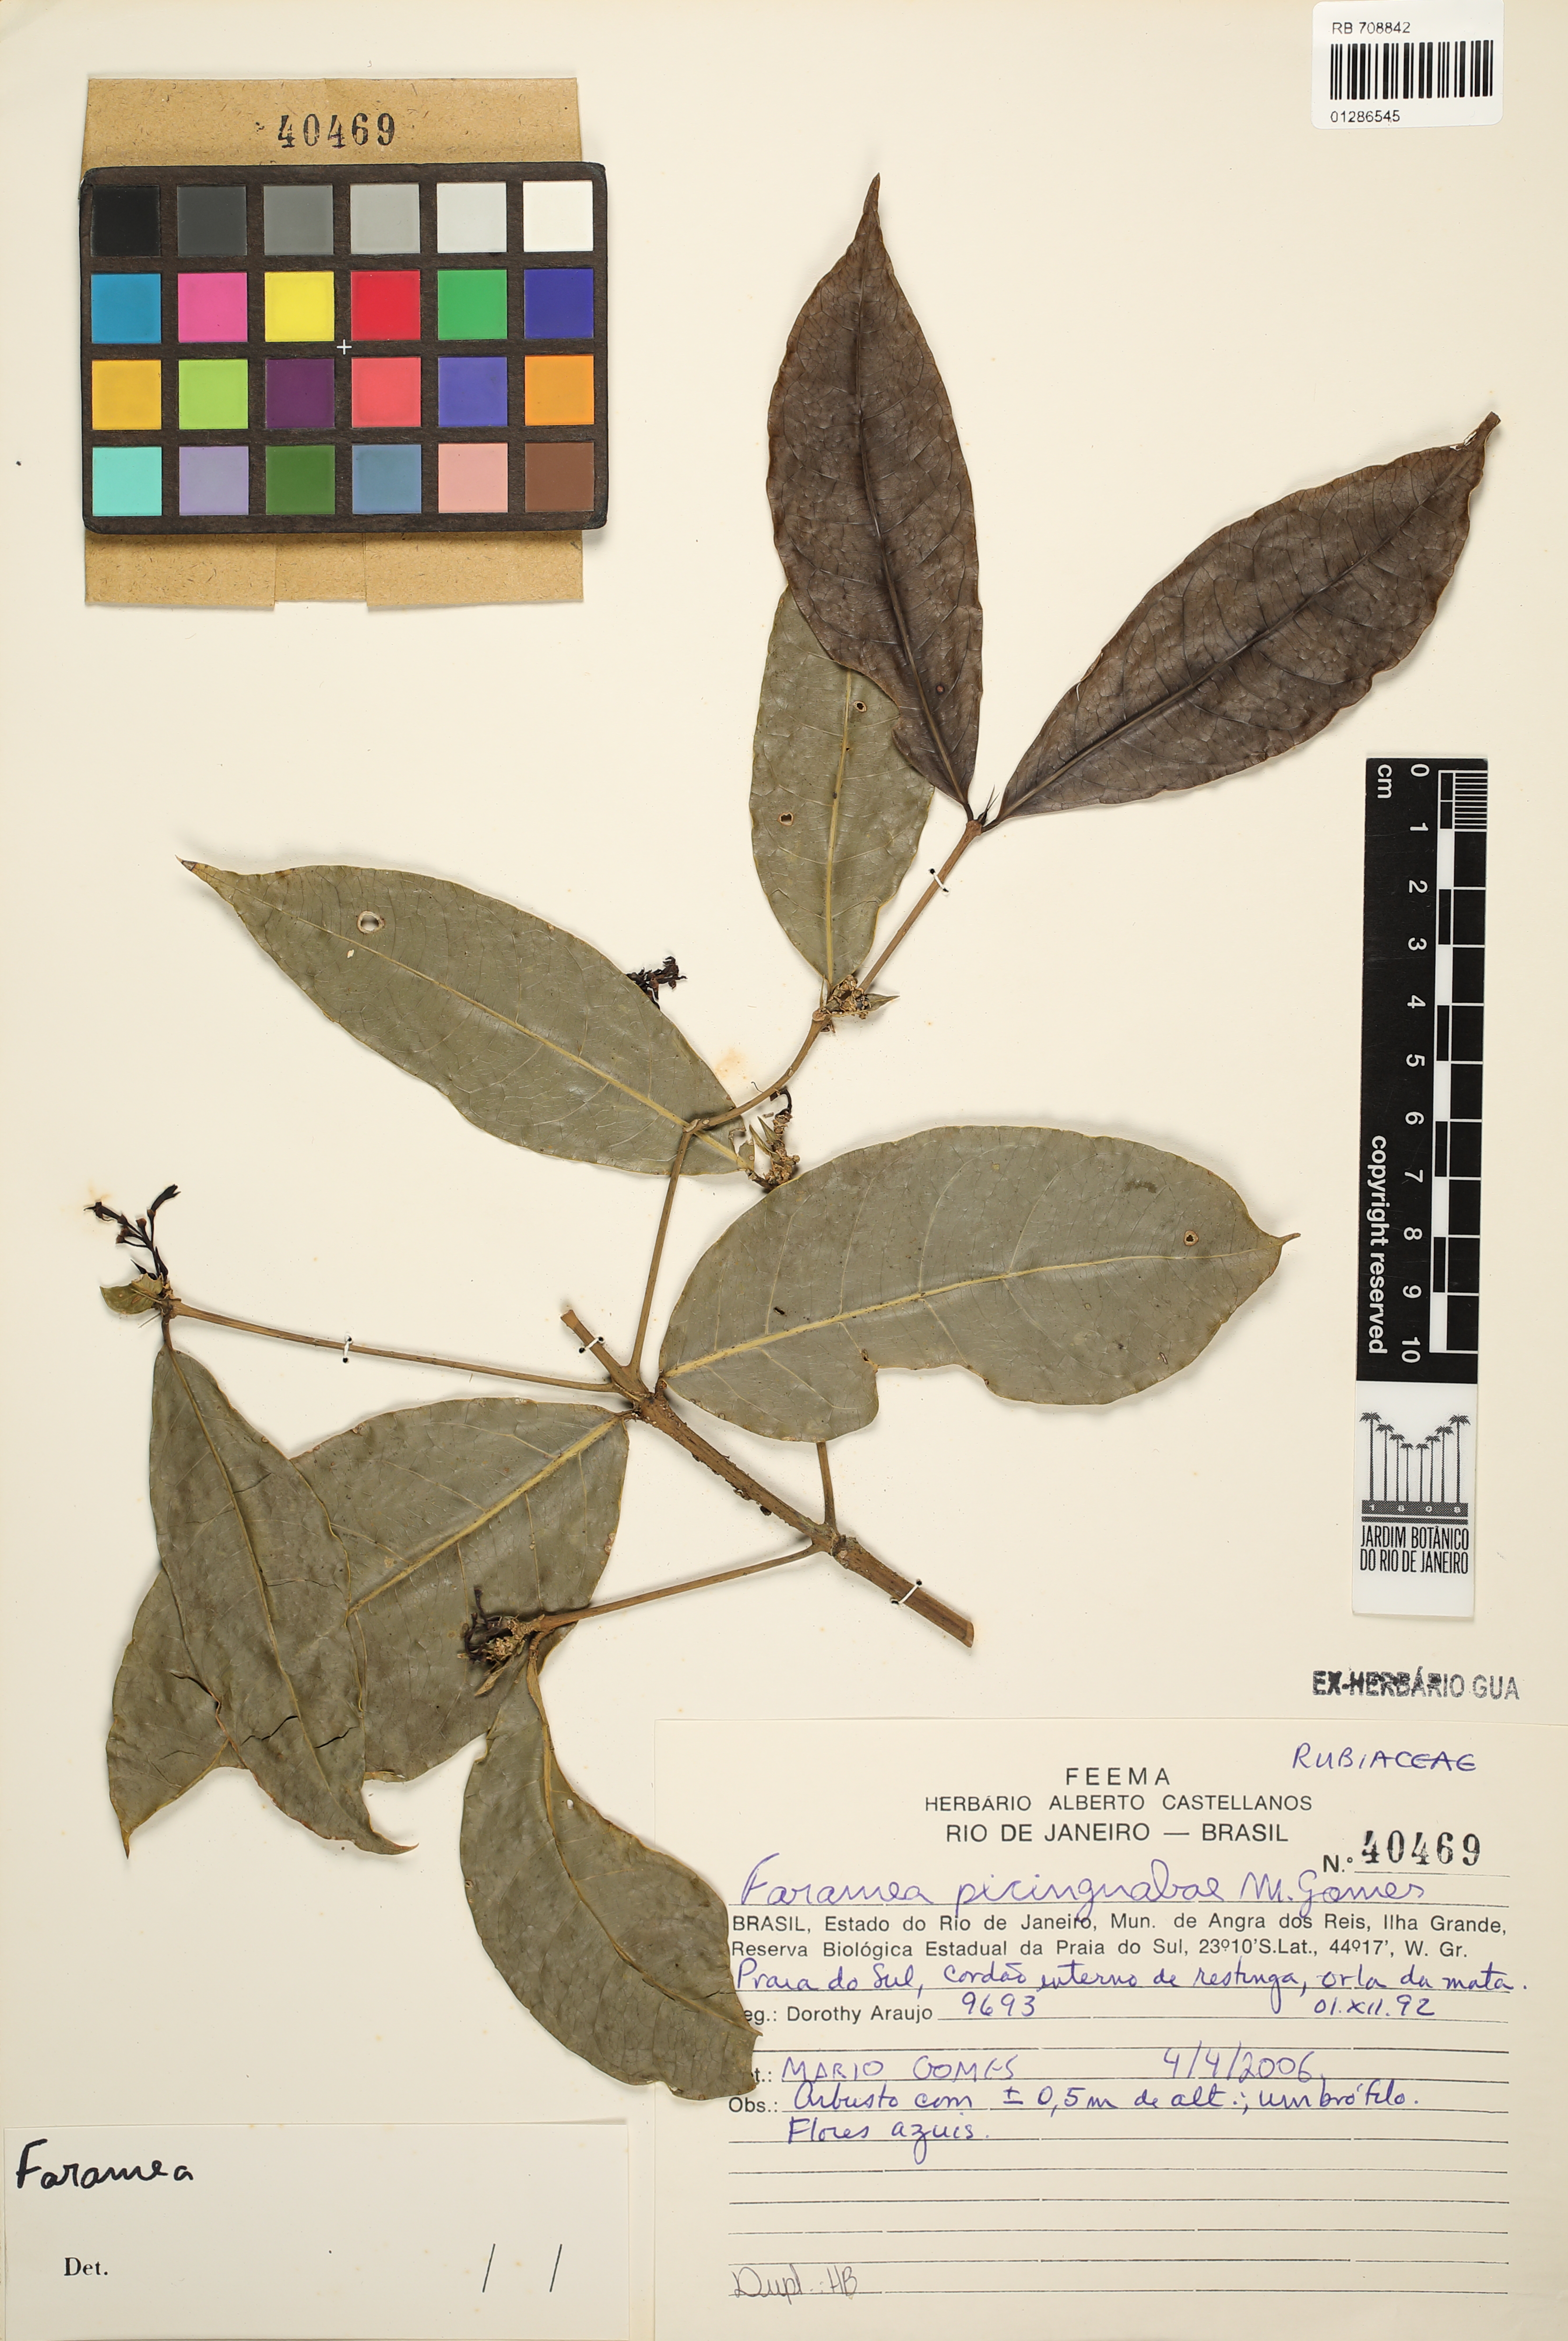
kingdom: Plantae
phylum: Tracheophyta
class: Magnoliopsida
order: Gentianales
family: Rubiaceae
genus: Faramea
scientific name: Faramea picinguabae
